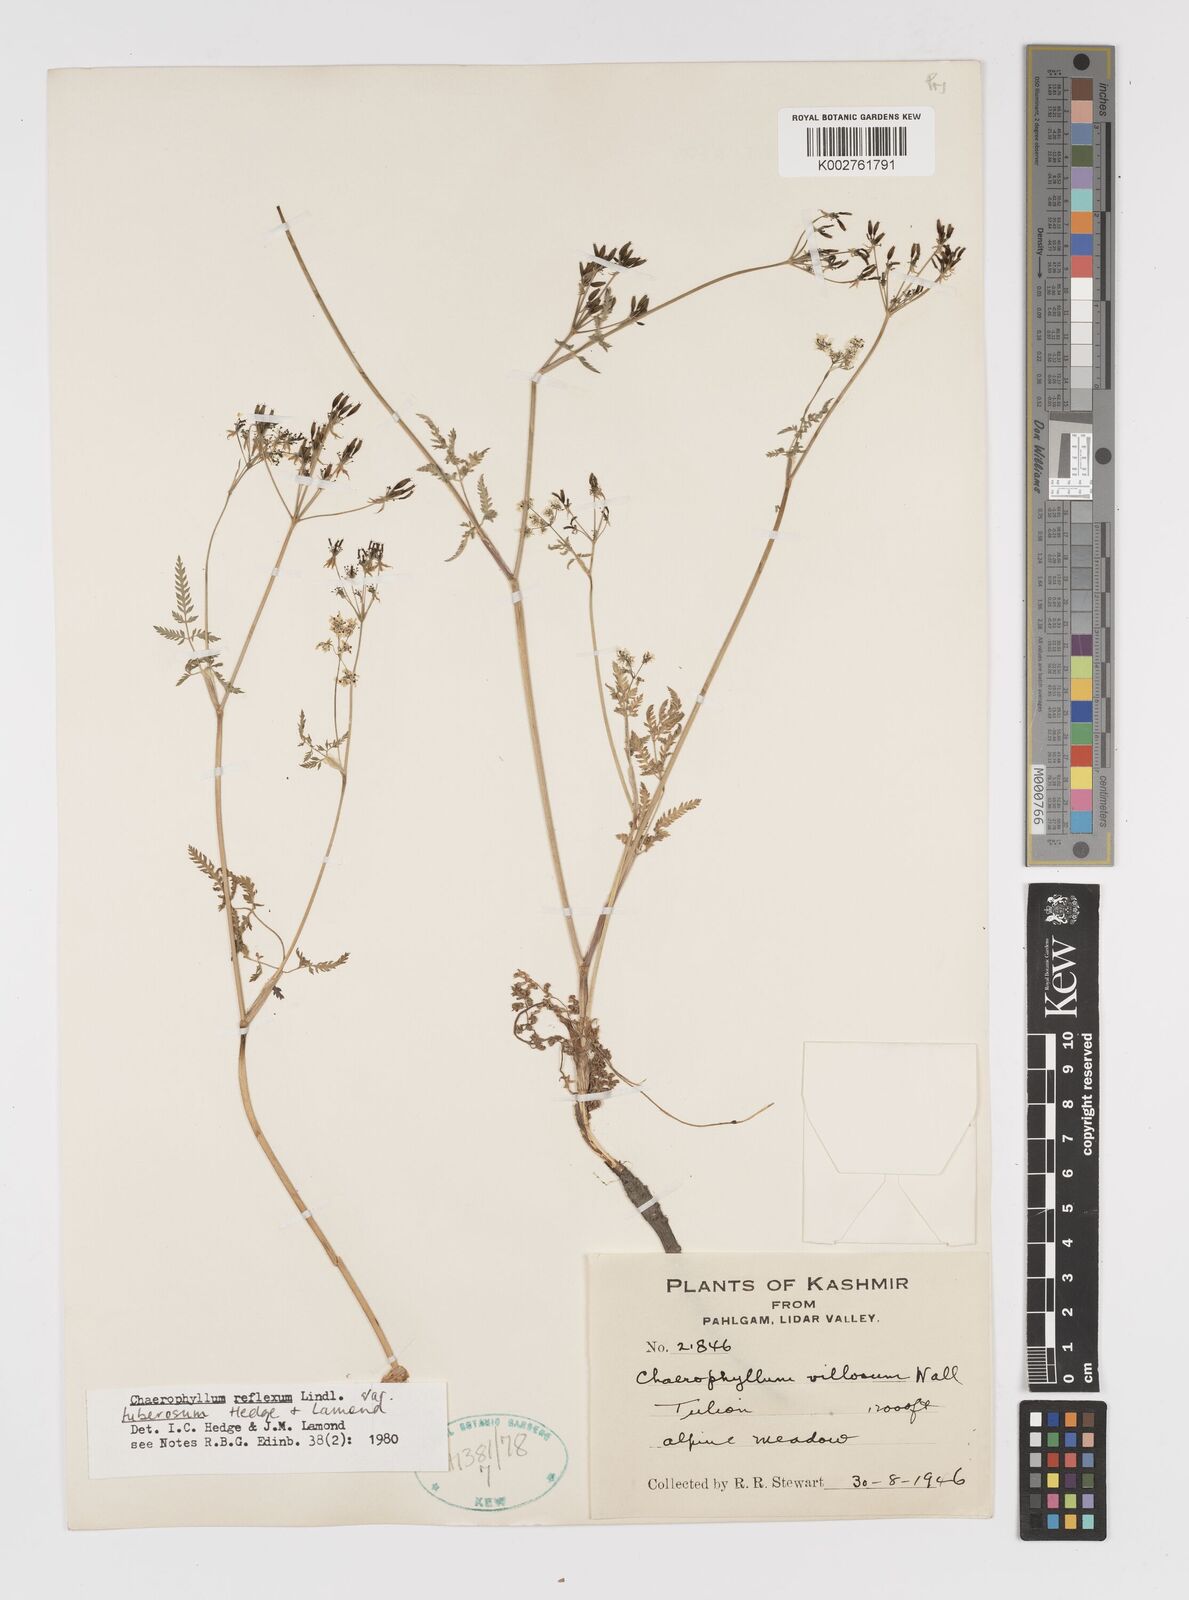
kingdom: Plantae
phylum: Tracheophyta
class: Magnoliopsida
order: Apiales
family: Apiaceae
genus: Chaerophyllum
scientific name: Chaerophyllum reflexum
